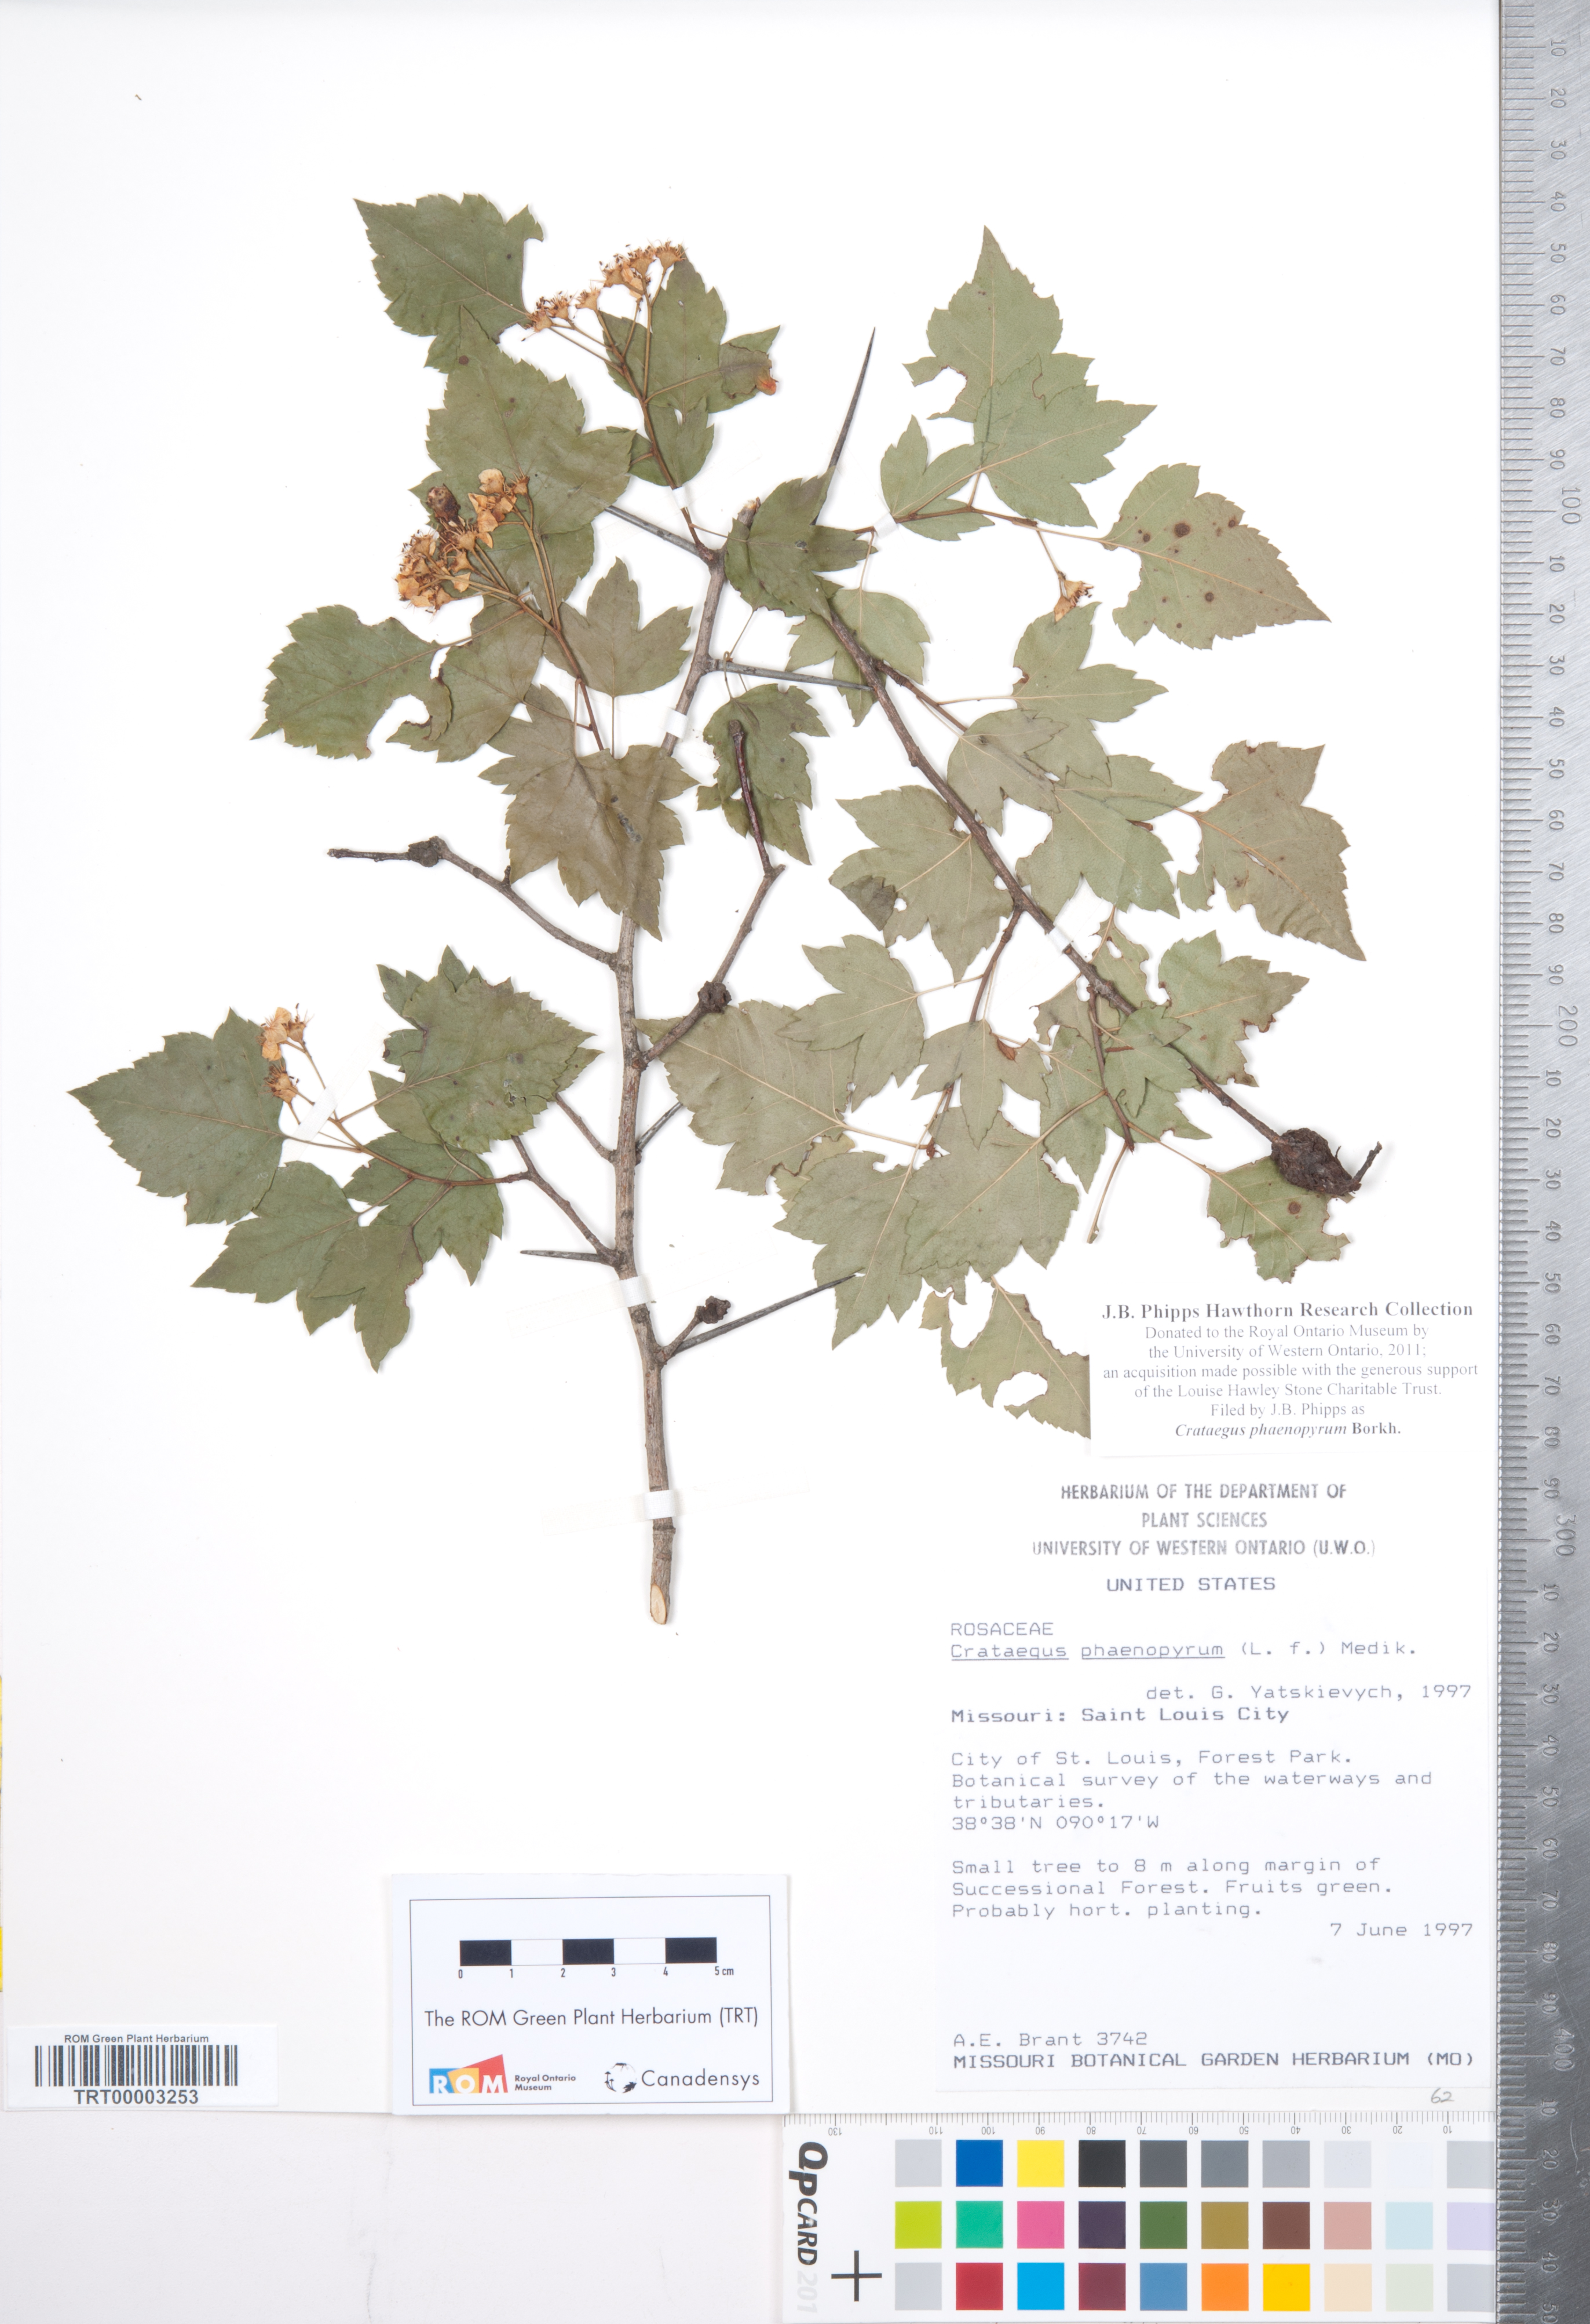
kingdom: Plantae
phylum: Tracheophyta
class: Magnoliopsida
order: Rosales
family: Rosaceae
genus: Crataegus
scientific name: Crataegus phaenopyrum
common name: Washington hawthorn
